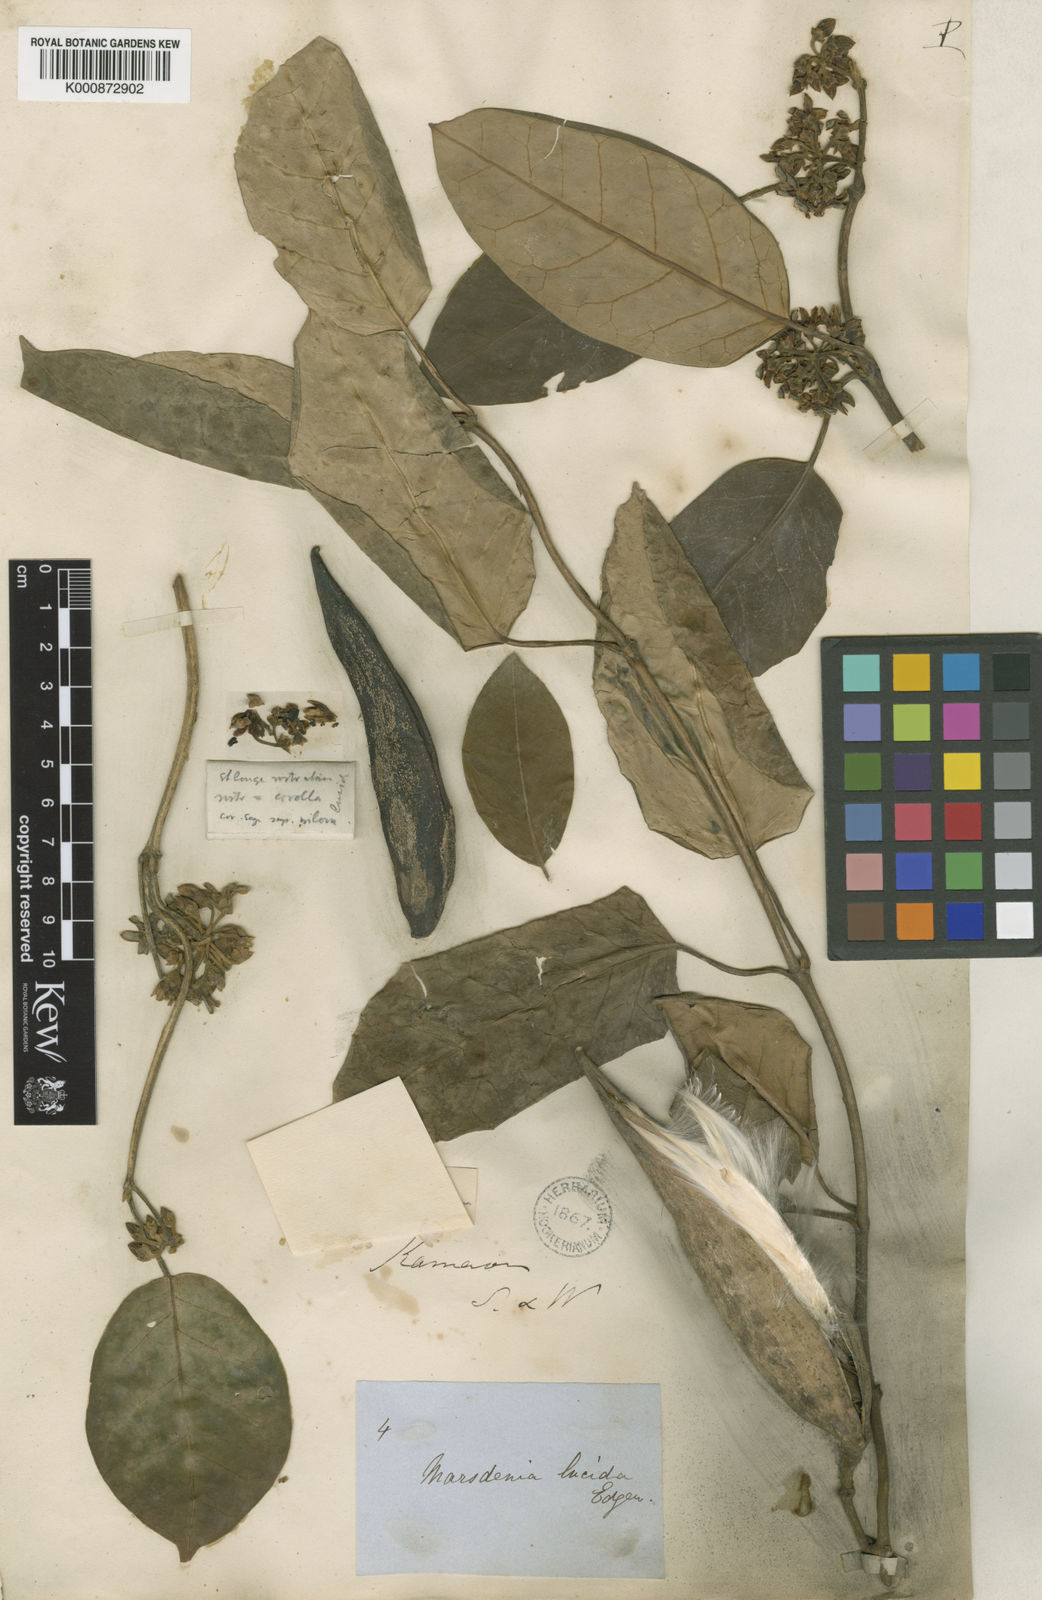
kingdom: Plantae
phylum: Tracheophyta
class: Magnoliopsida
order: Gentianales
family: Apocynaceae
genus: Sinomarsdenia
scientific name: Sinomarsdenia lucida
